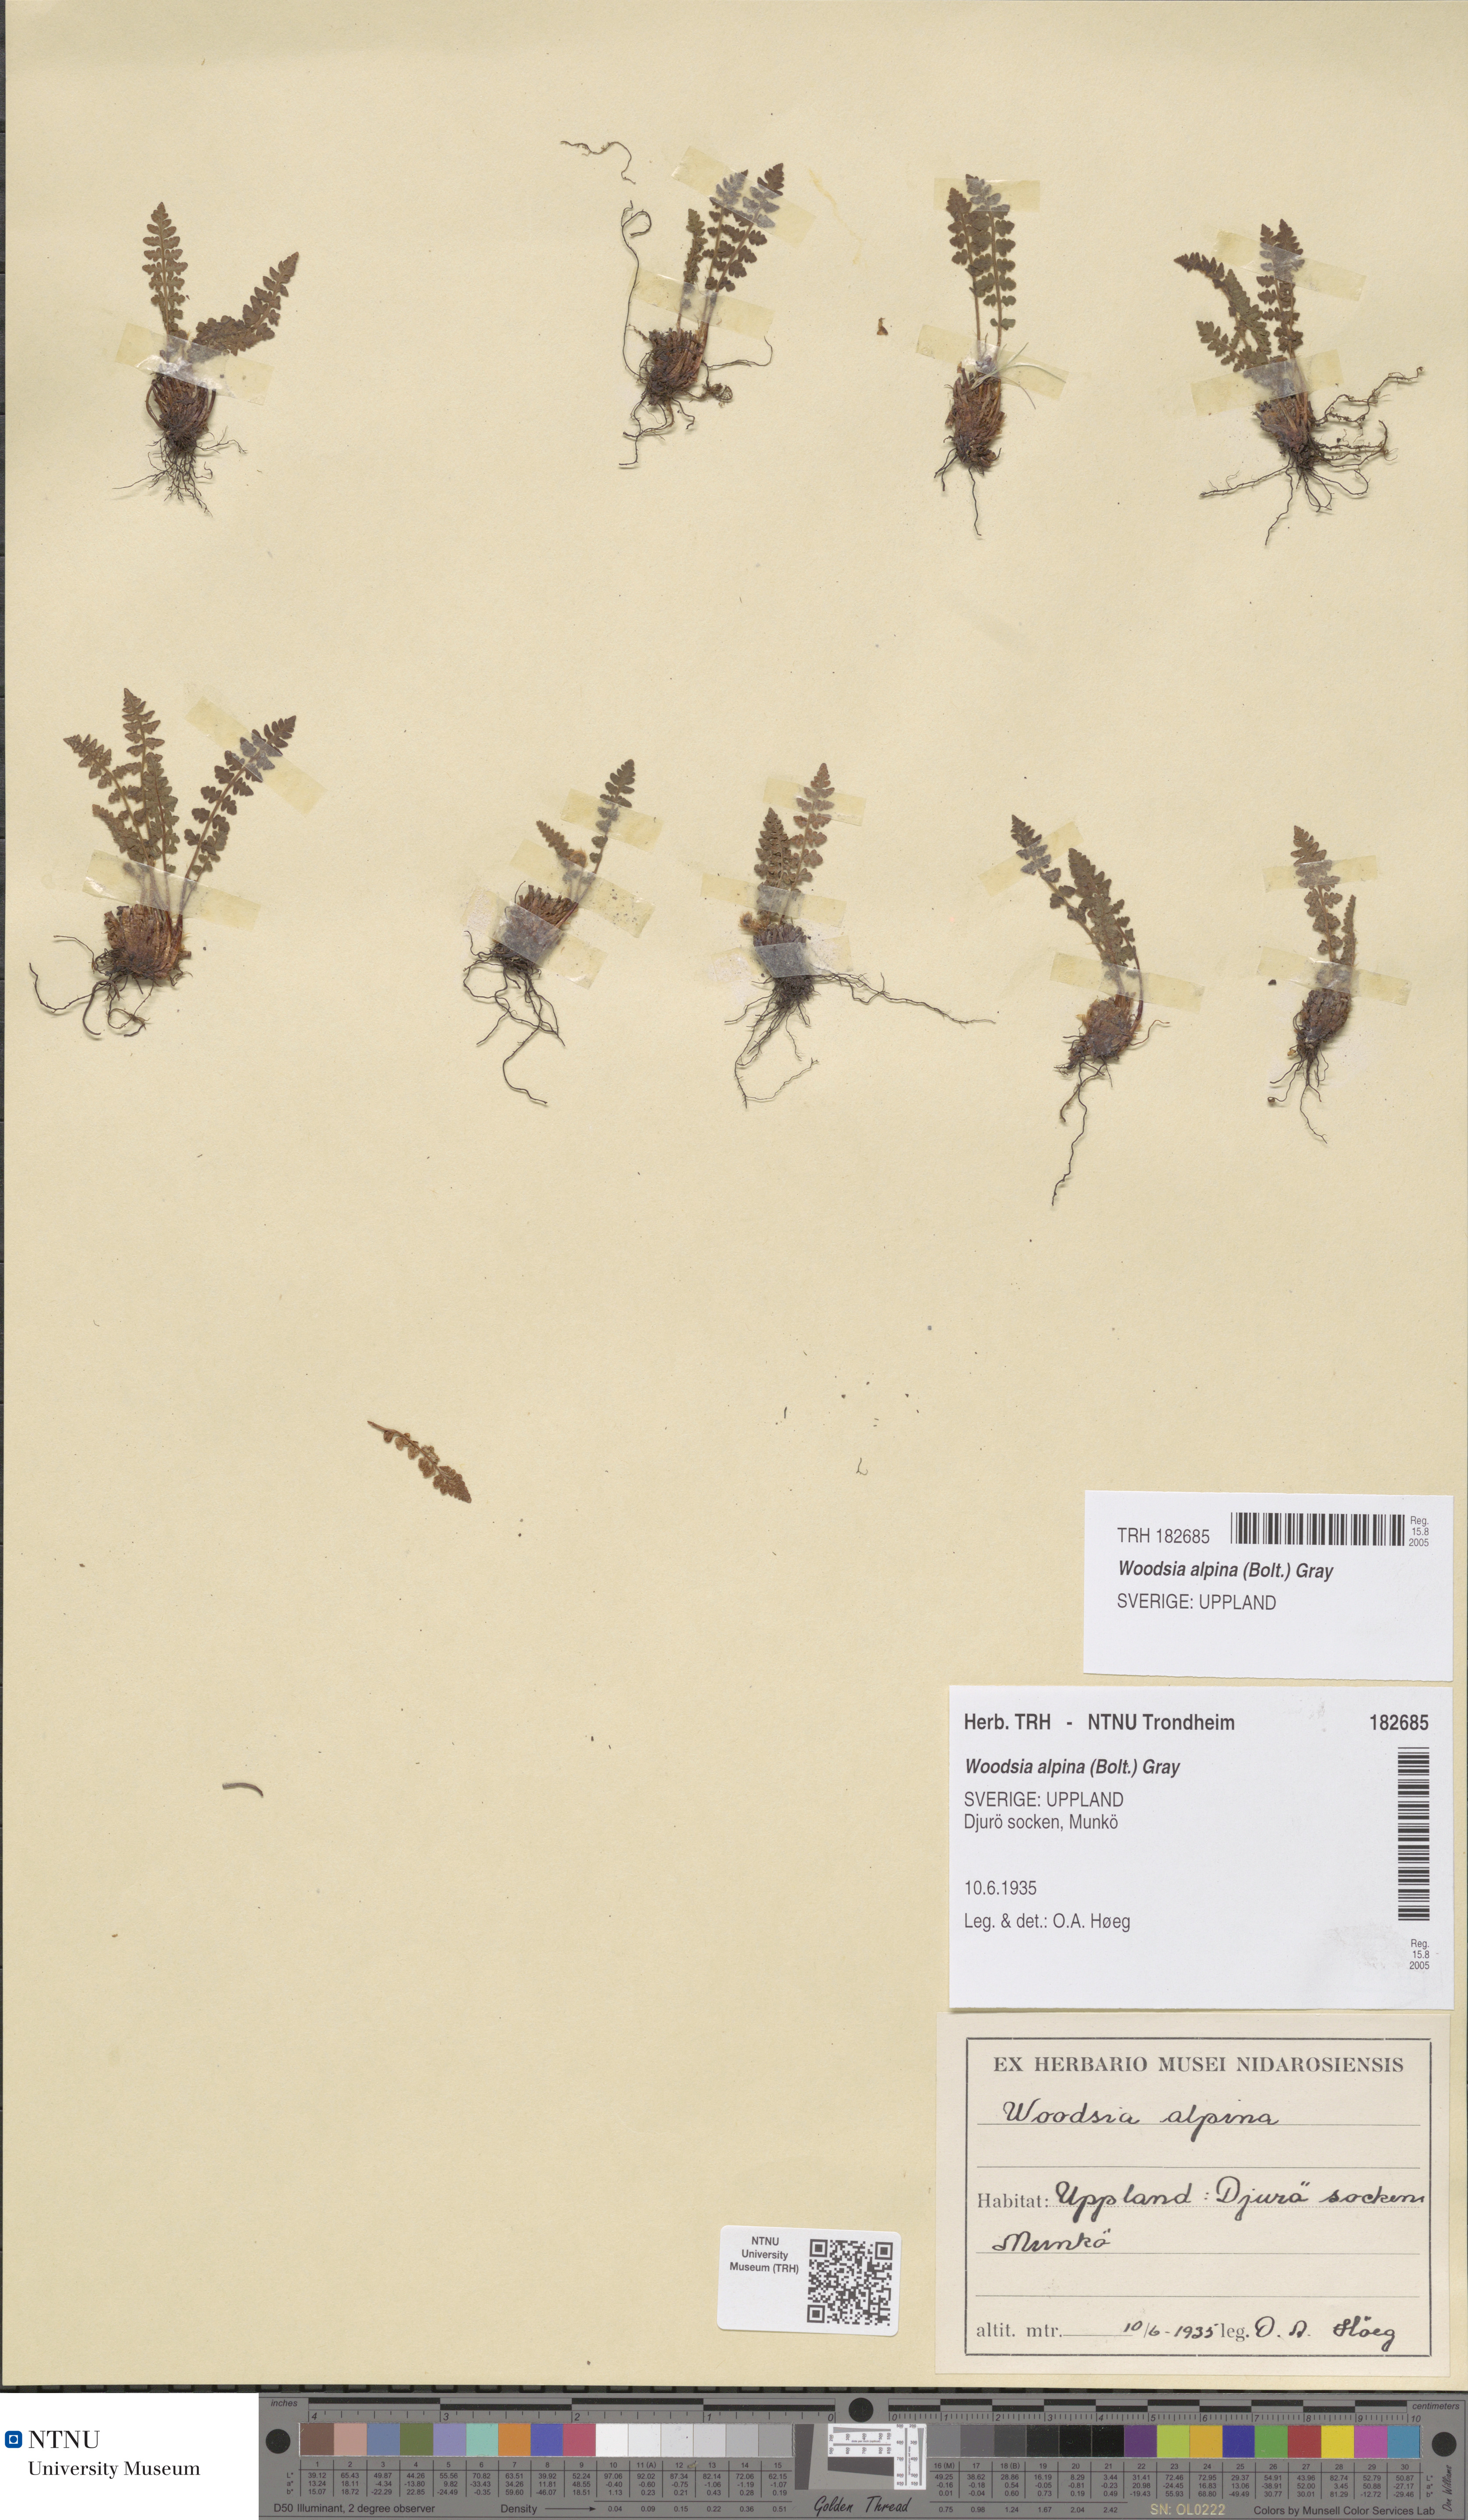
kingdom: Plantae
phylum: Tracheophyta
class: Polypodiopsida
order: Polypodiales
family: Woodsiaceae
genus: Woodsia
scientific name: Woodsia alpina
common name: Alpine woodsia
